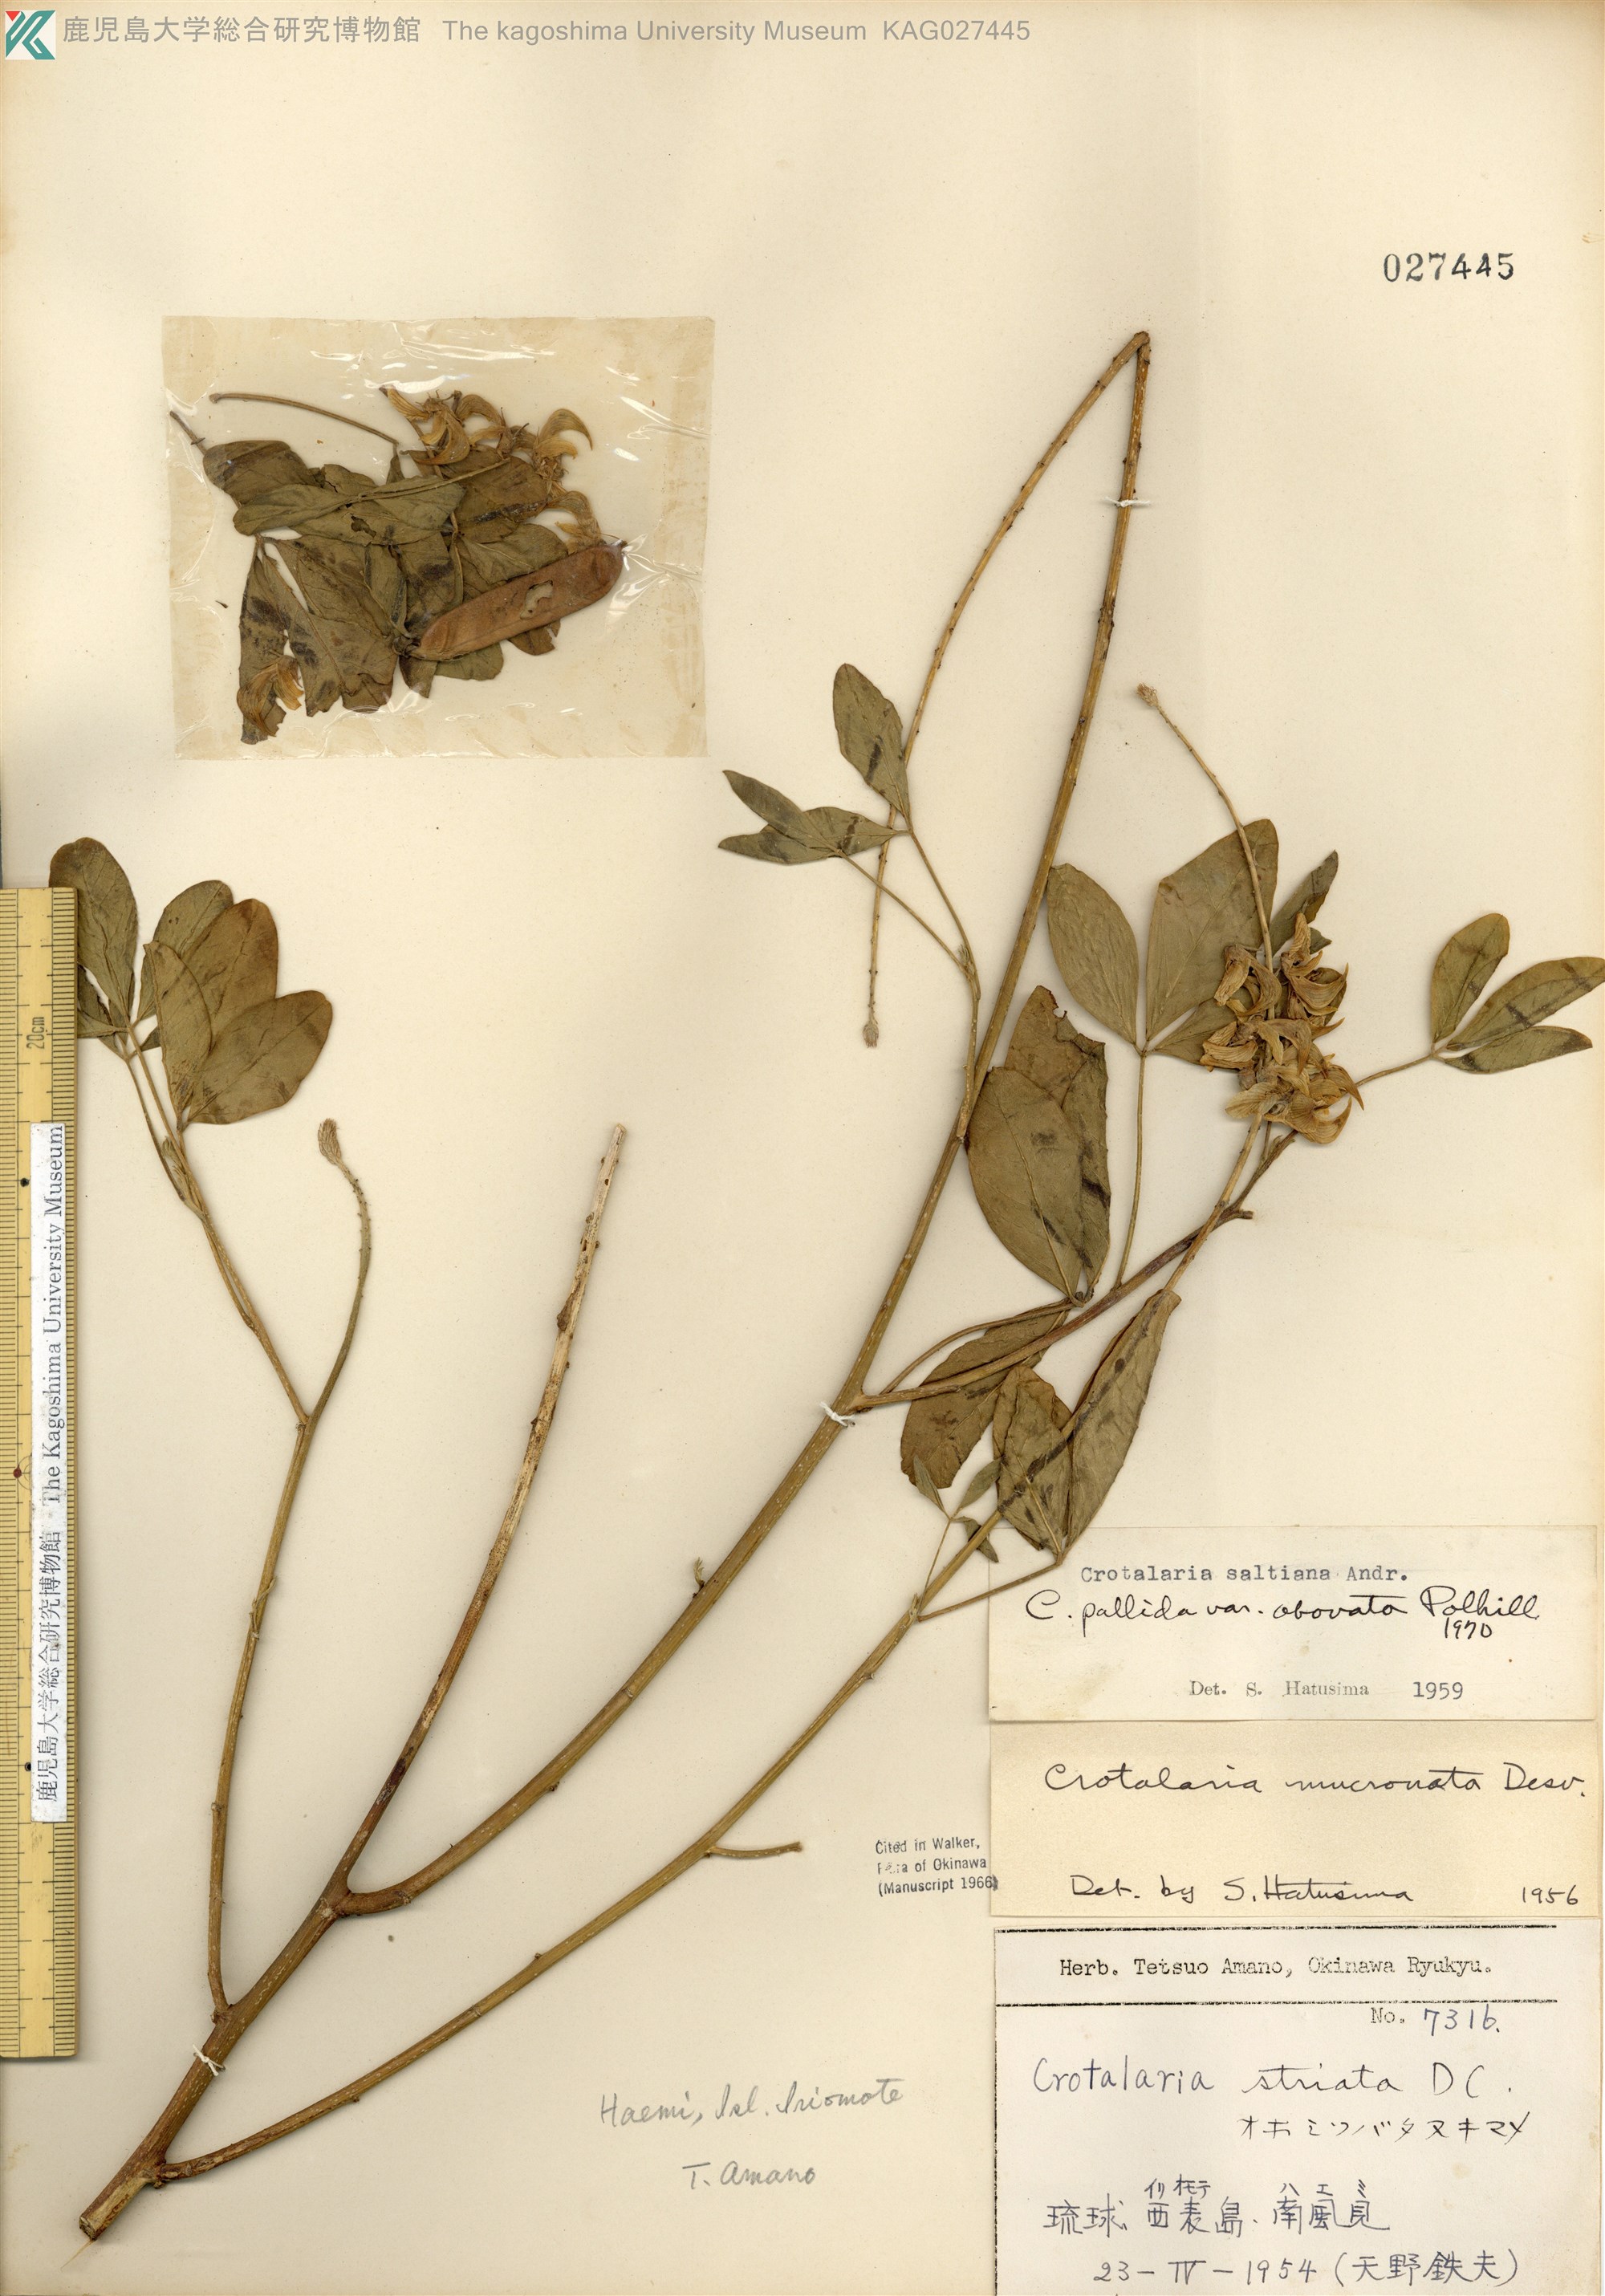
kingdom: Plantae
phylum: Tracheophyta
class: Magnoliopsida
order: Fabales
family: Fabaceae
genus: Crotalaria
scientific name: Crotalaria pallida
